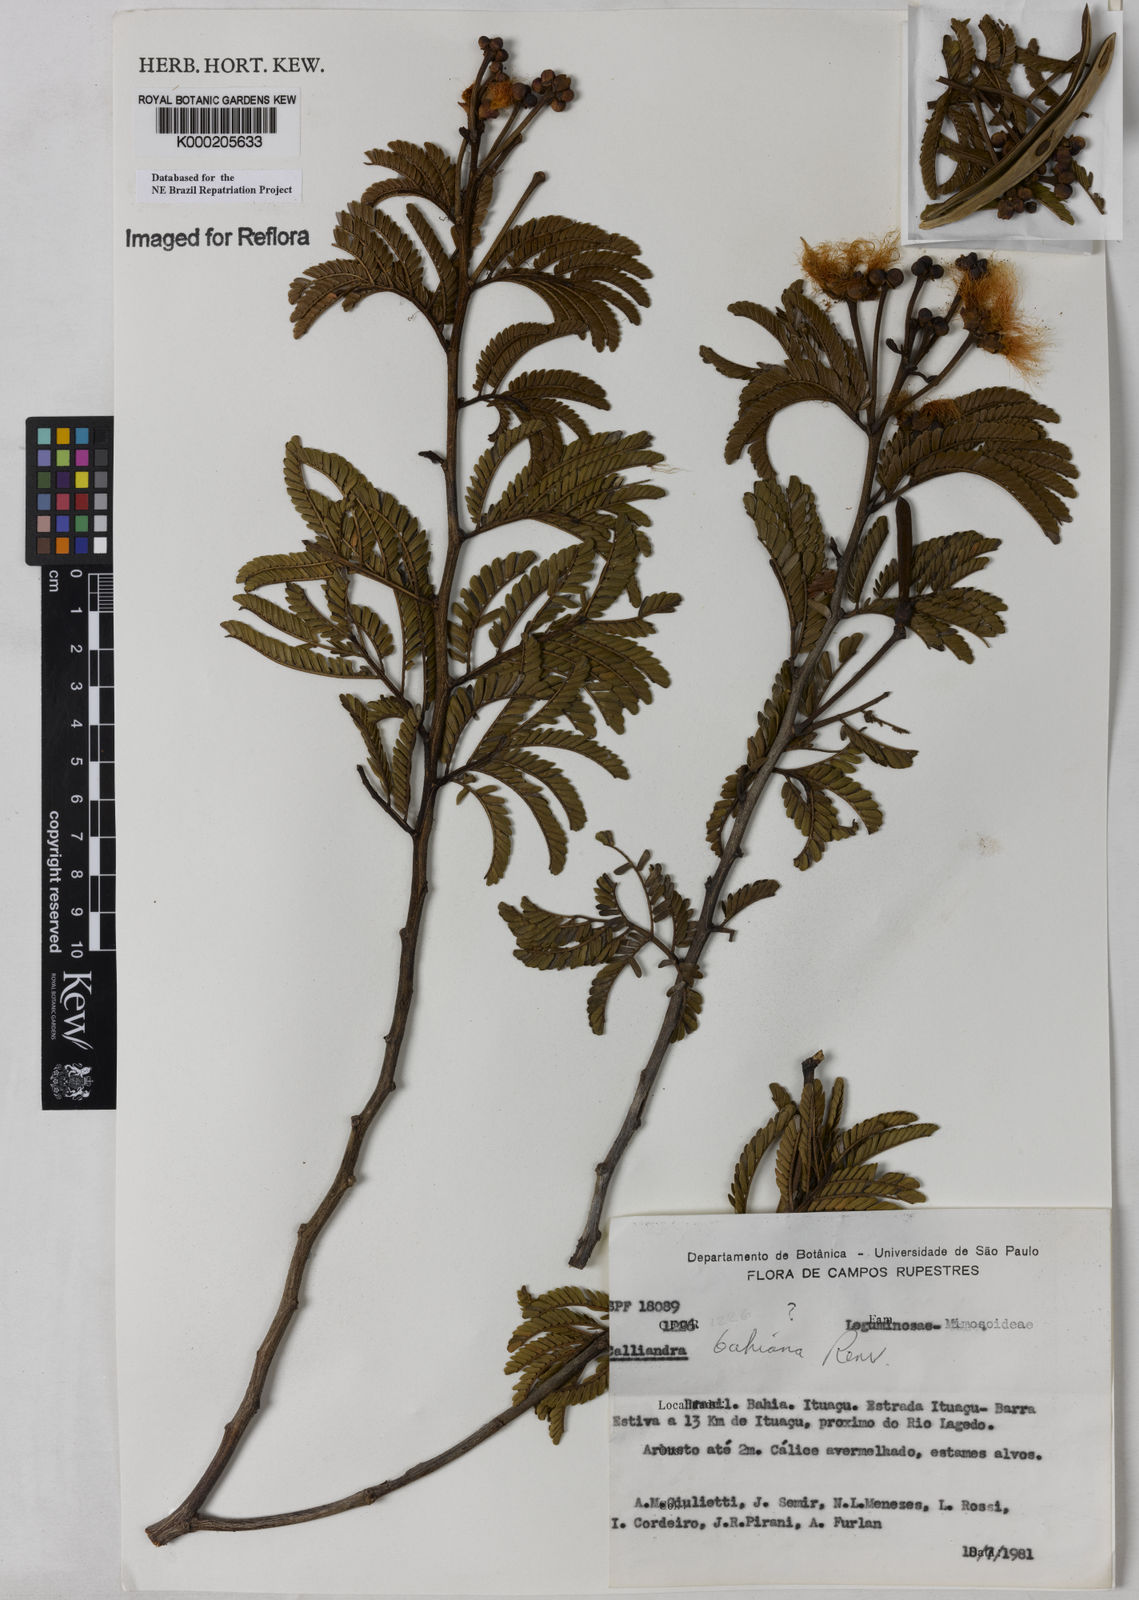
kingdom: Plantae
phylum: Tracheophyta
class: Magnoliopsida
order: Fabales
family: Fabaceae
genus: Calliandra
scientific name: Calliandra bahiana
